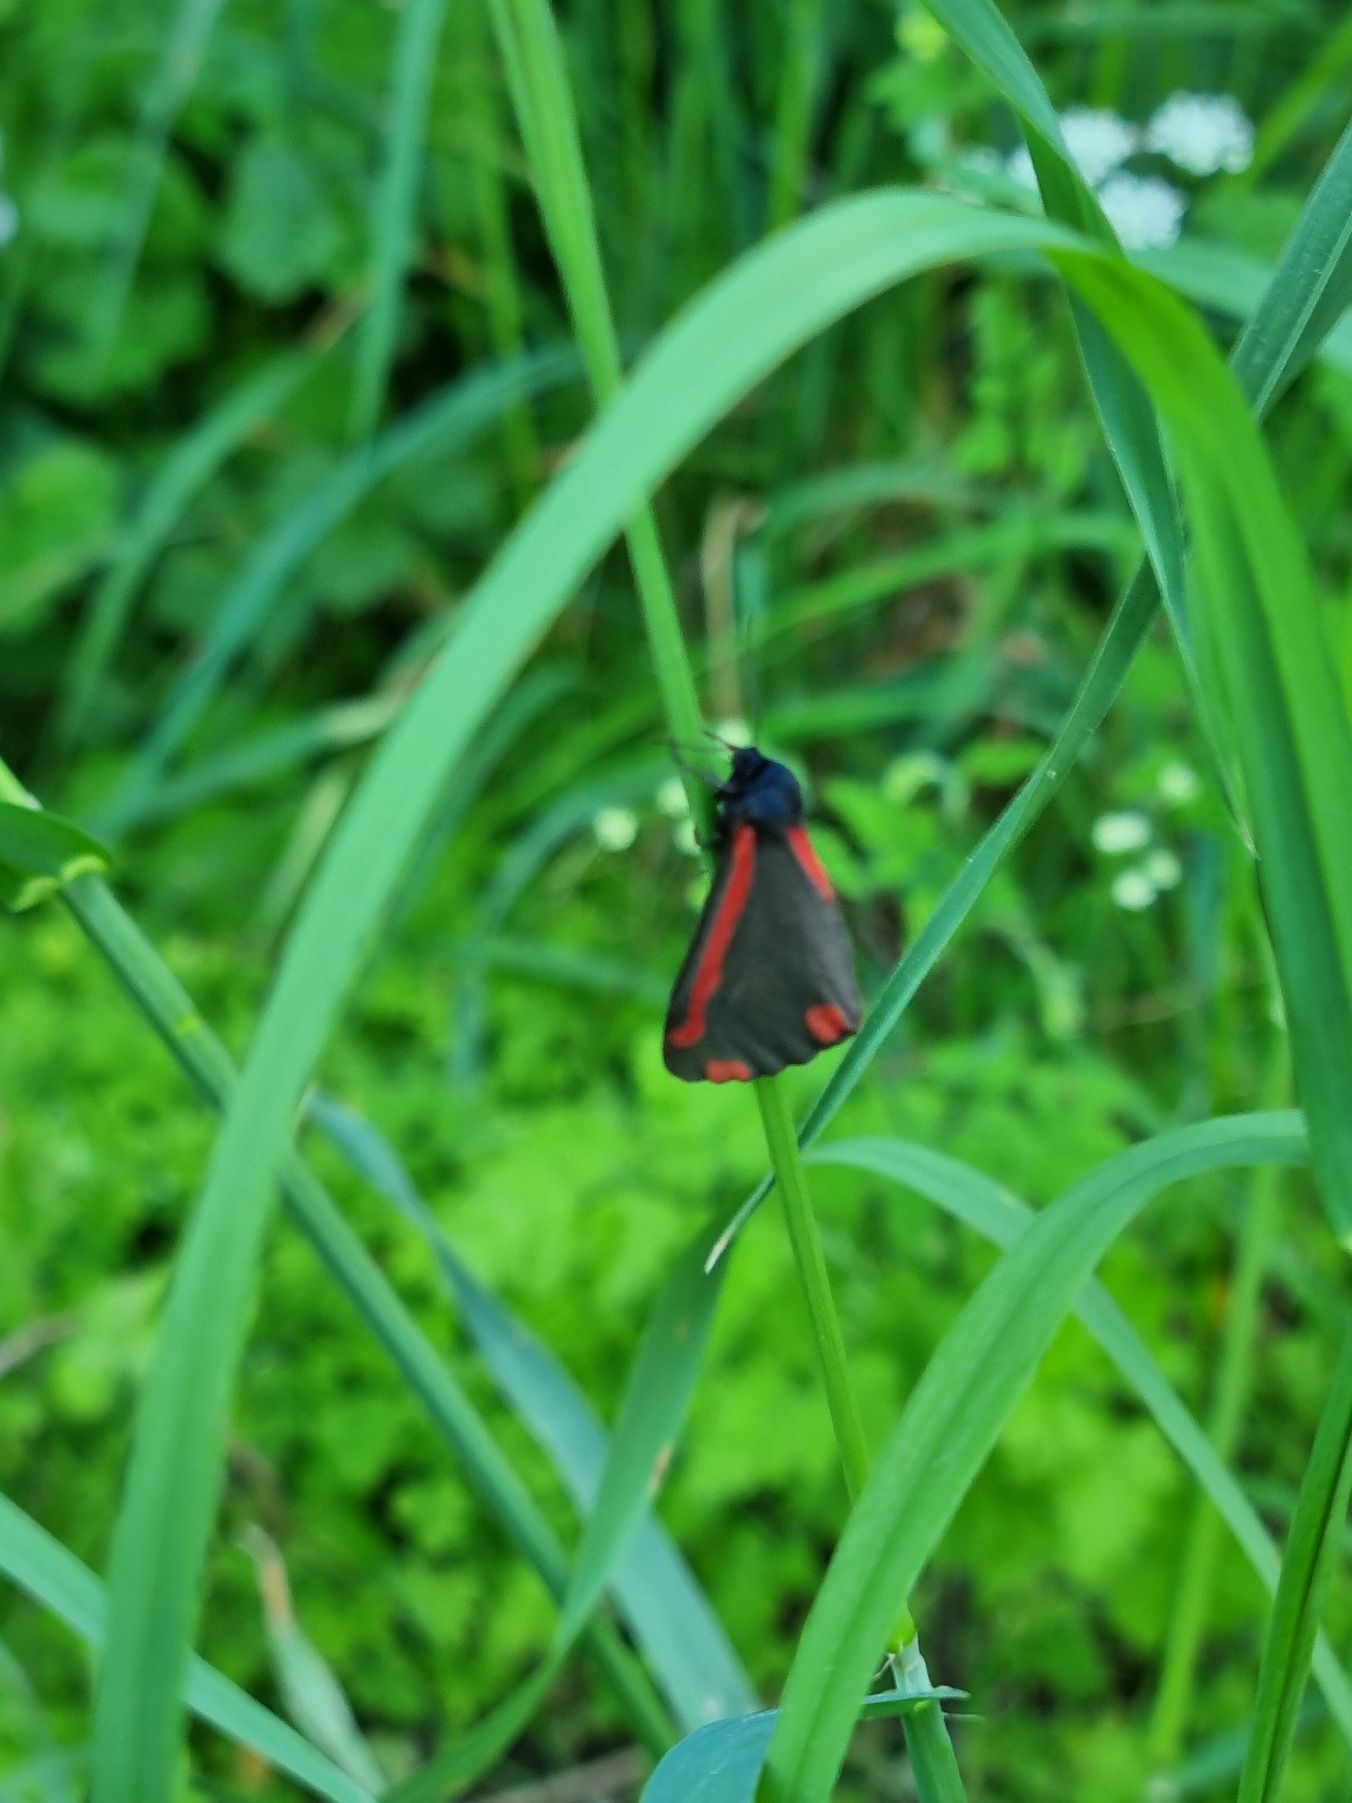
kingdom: Animalia
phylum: Arthropoda
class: Insecta
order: Lepidoptera
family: Erebidae
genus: Tyria
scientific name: Tyria jacobaeae
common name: Blodplet
